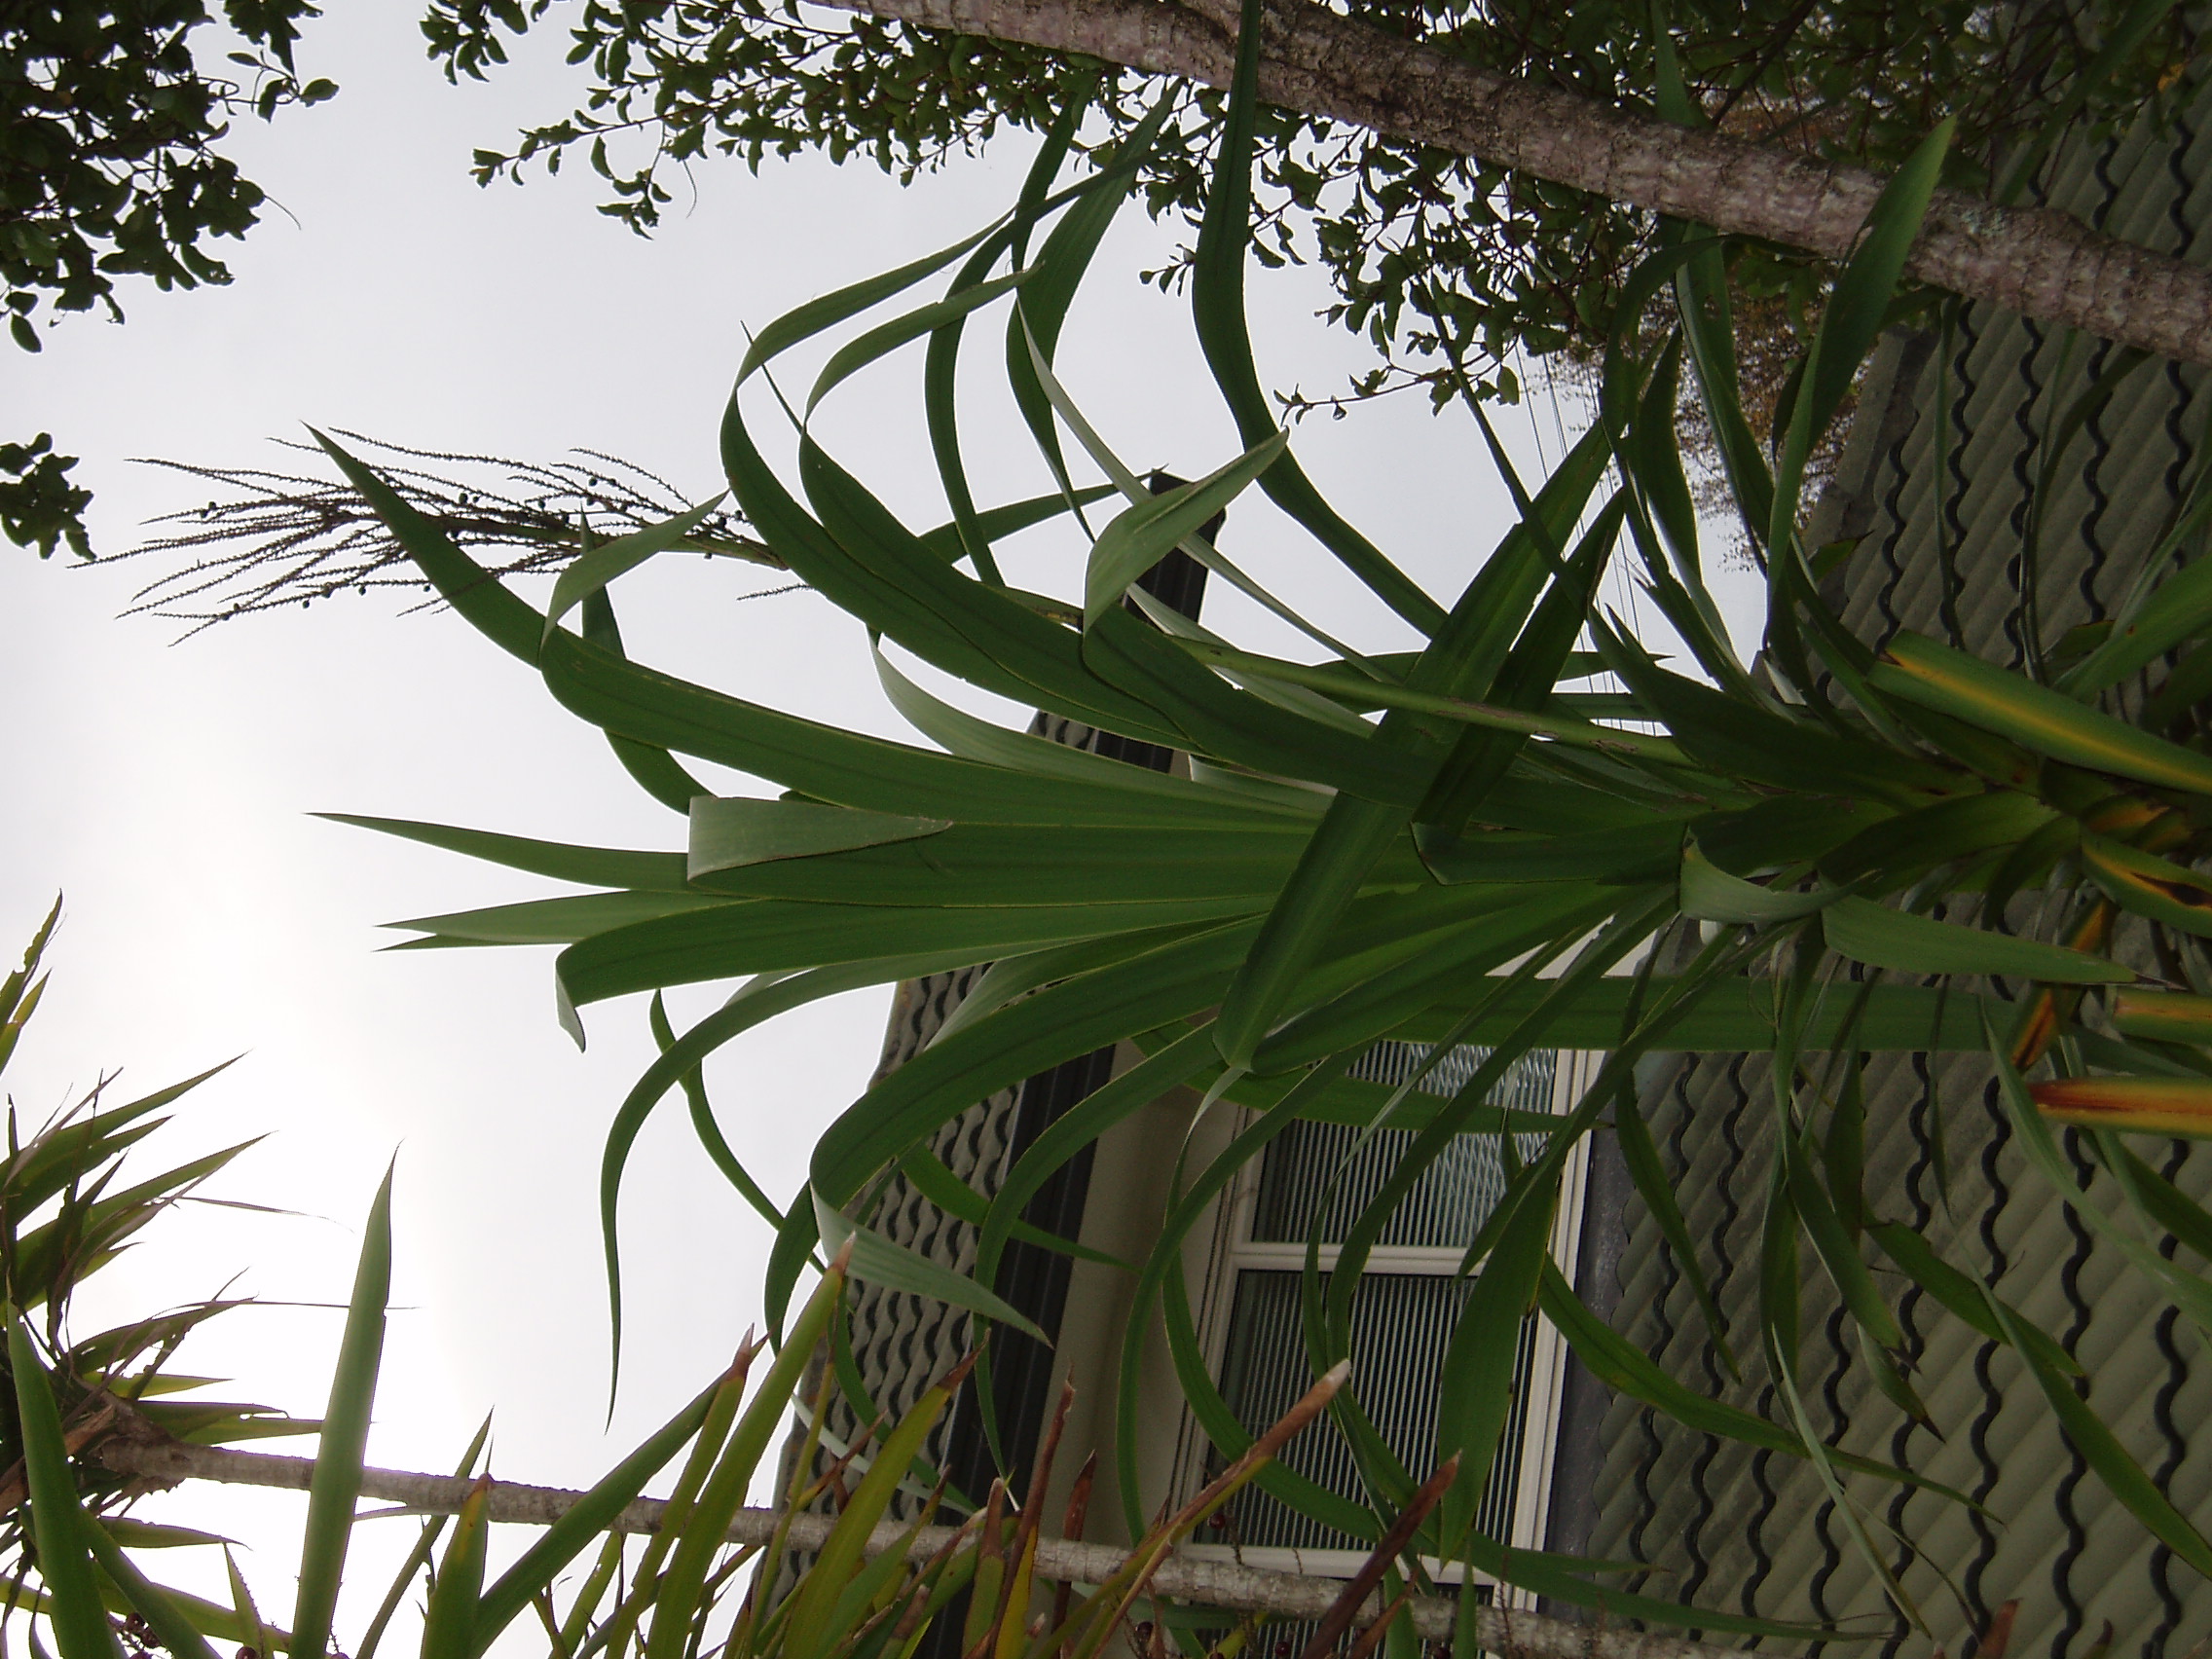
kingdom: Plantae
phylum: Tracheophyta
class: Liliopsida
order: Asparagales
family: Asparagaceae
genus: Cordyline
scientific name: Cordyline congesta
